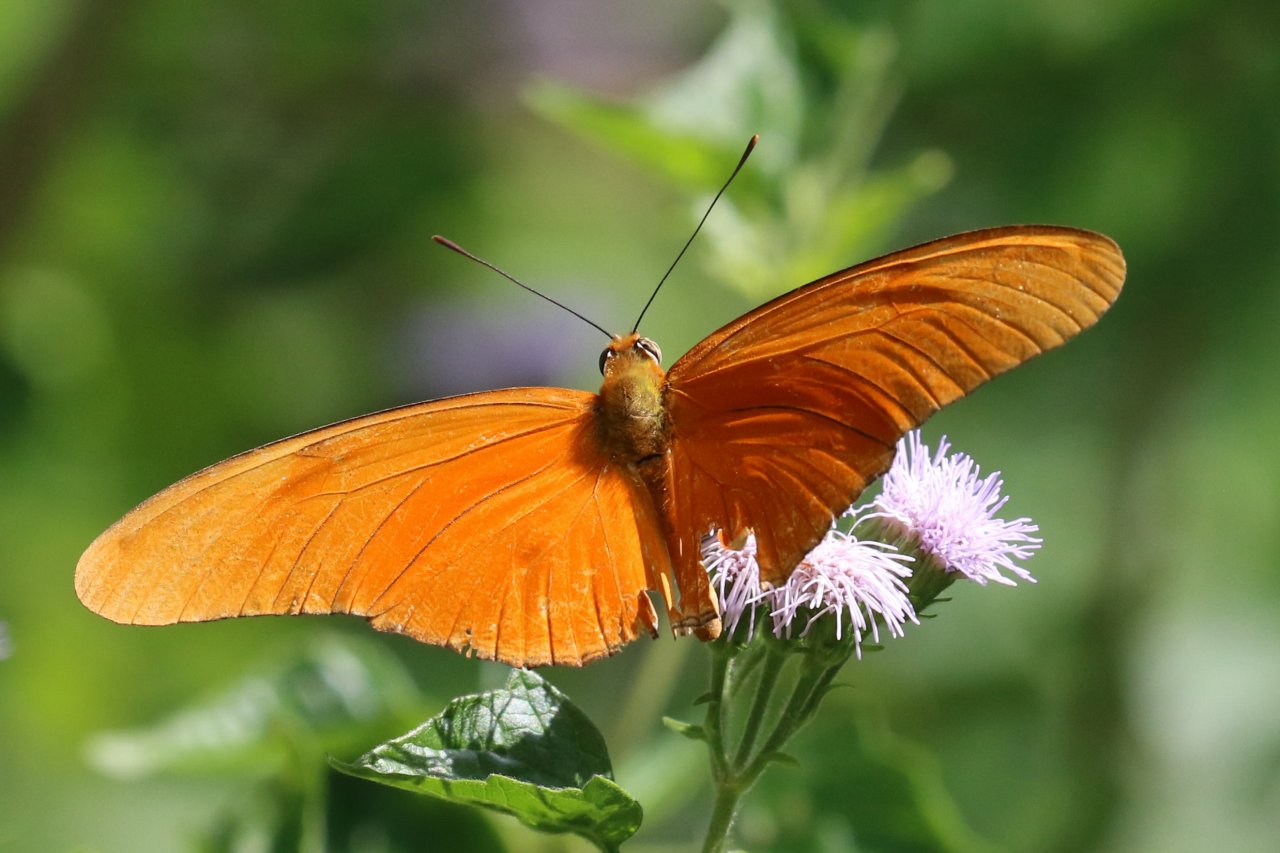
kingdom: Animalia
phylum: Arthropoda
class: Insecta
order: Lepidoptera
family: Nymphalidae
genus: Dryas
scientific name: Dryas iulia
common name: Julia
